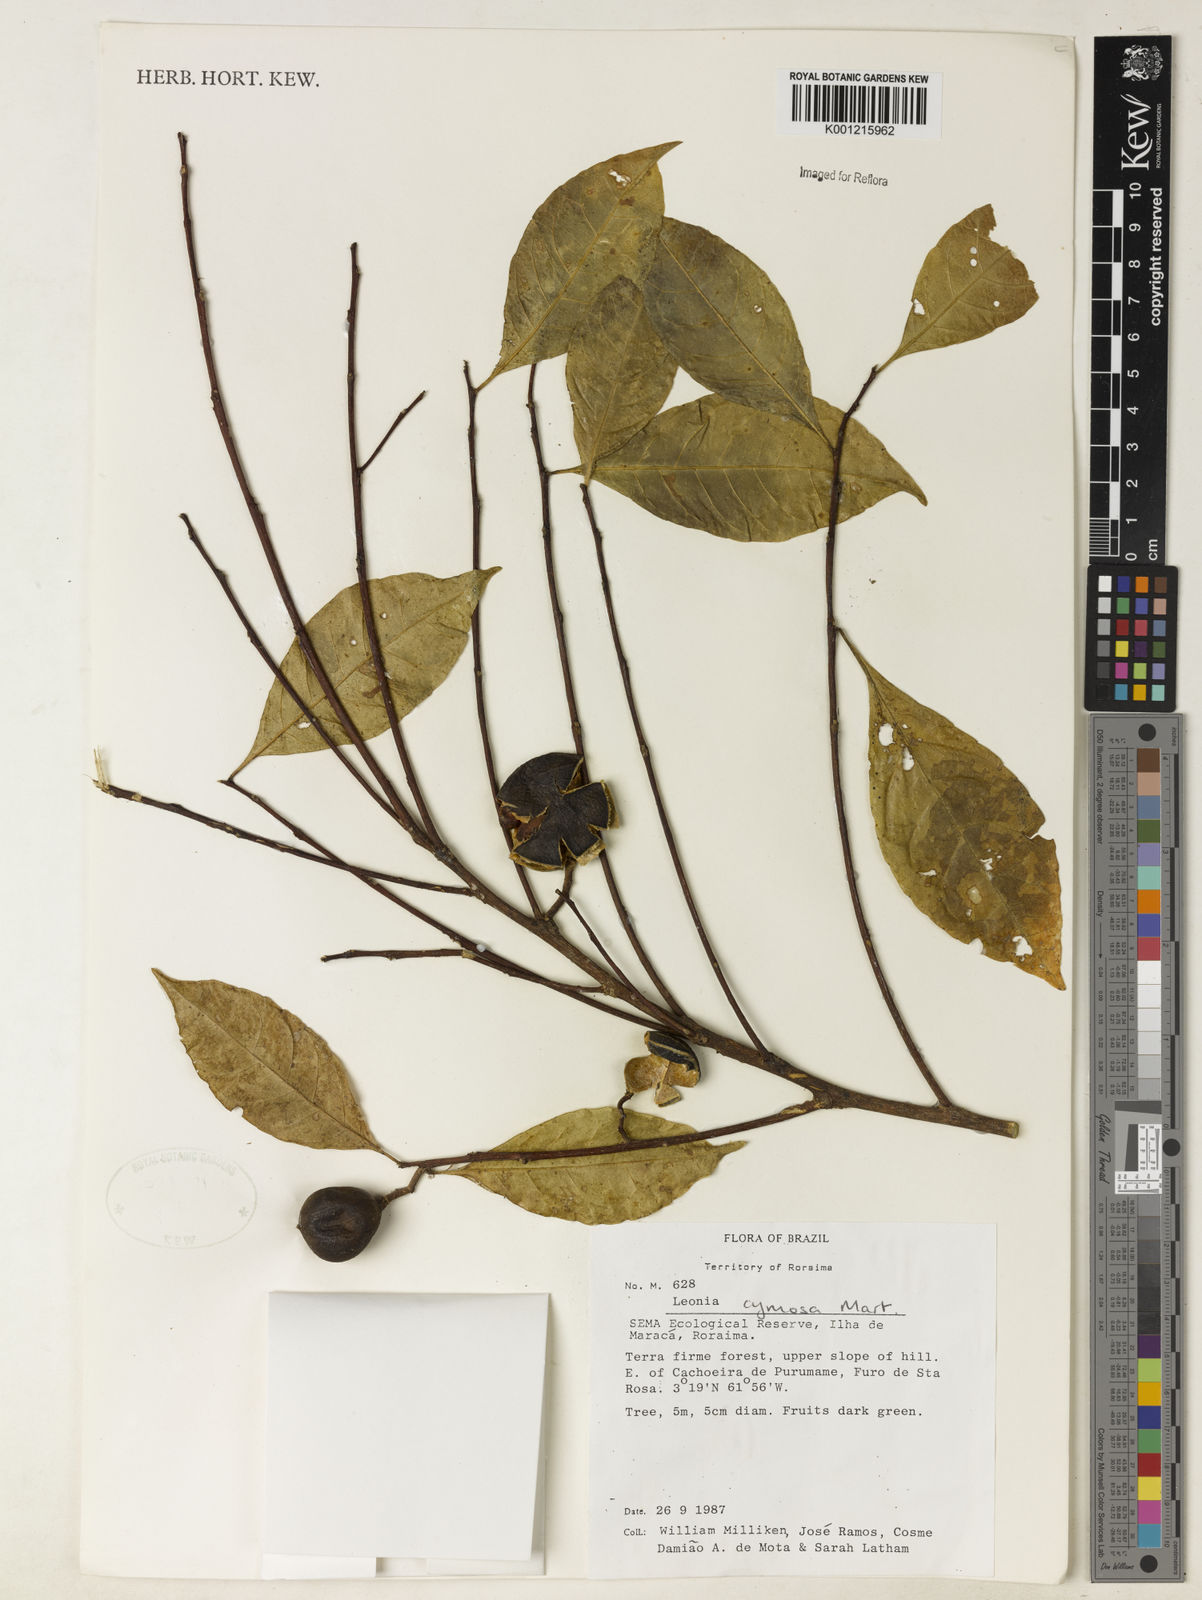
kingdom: Plantae
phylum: Tracheophyta
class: Magnoliopsida
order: Malpighiales
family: Violaceae
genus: Leonia
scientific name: Leonia cymosa
